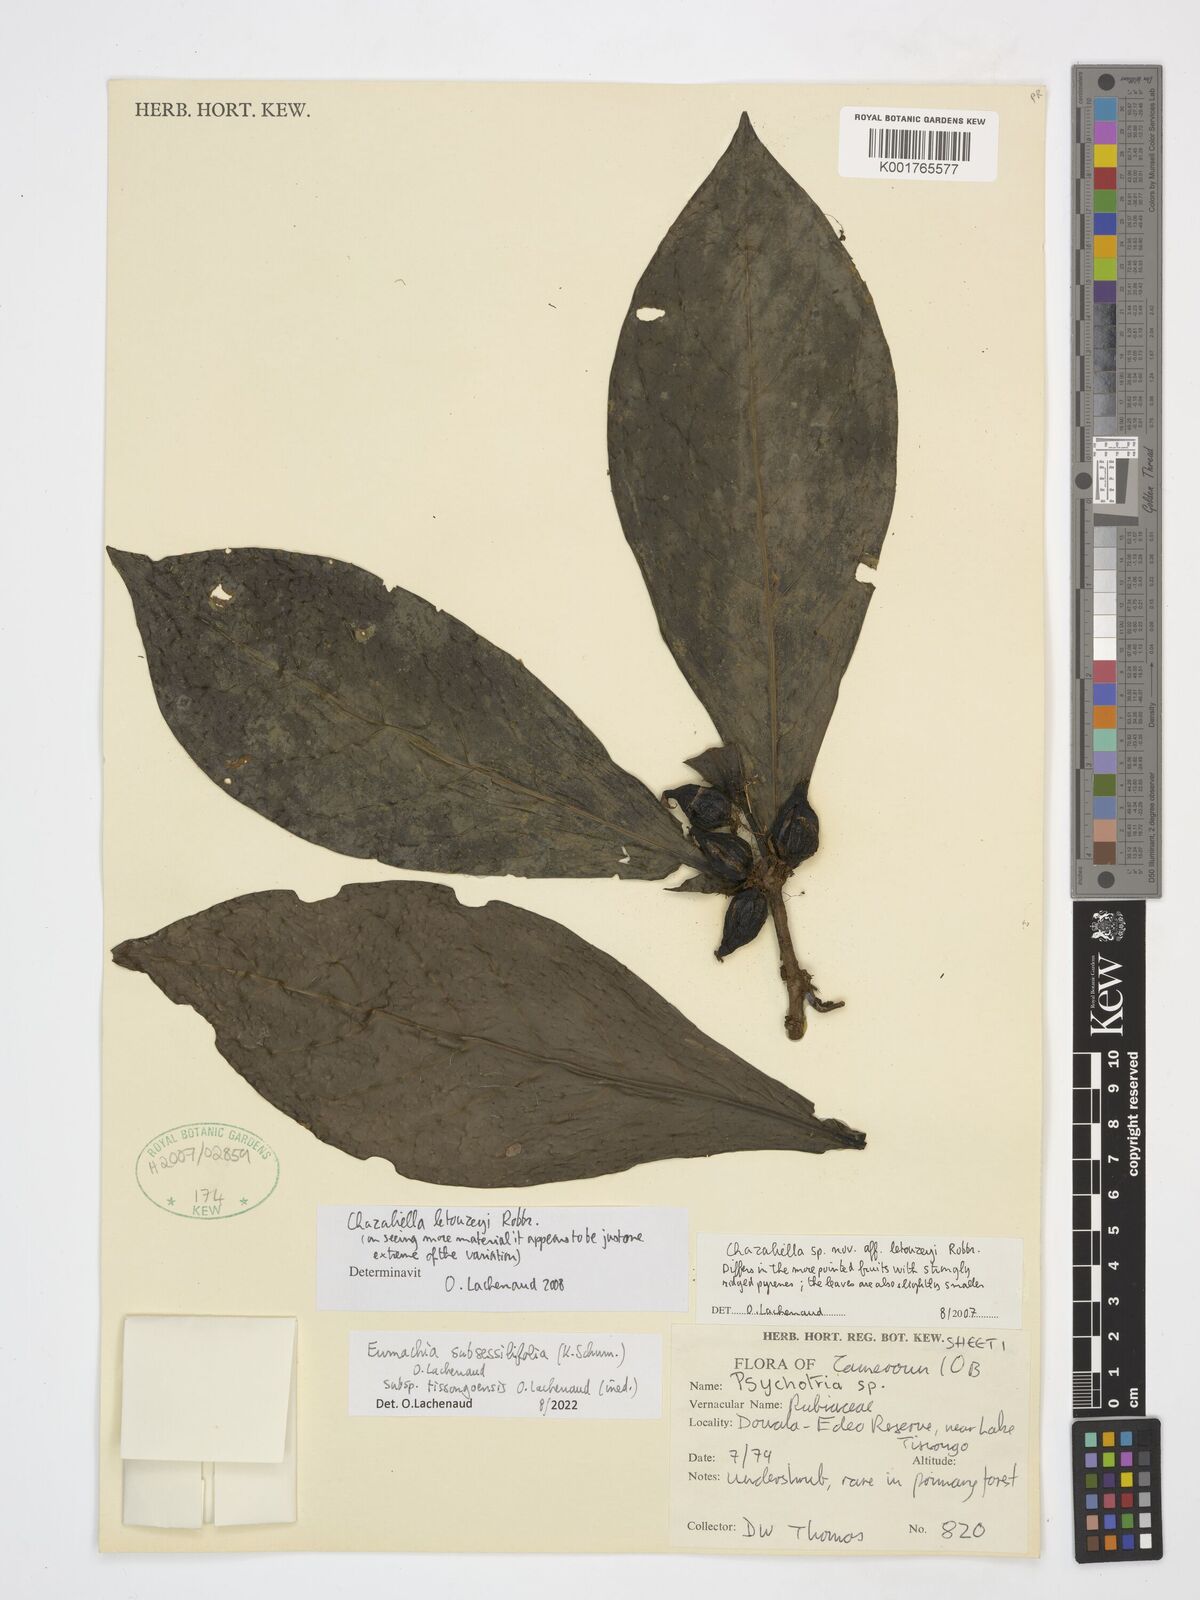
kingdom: Plantae
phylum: Tracheophyta
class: Magnoliopsida
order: Gentianales
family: Rubiaceae
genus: Eumachia
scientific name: Eumachia
